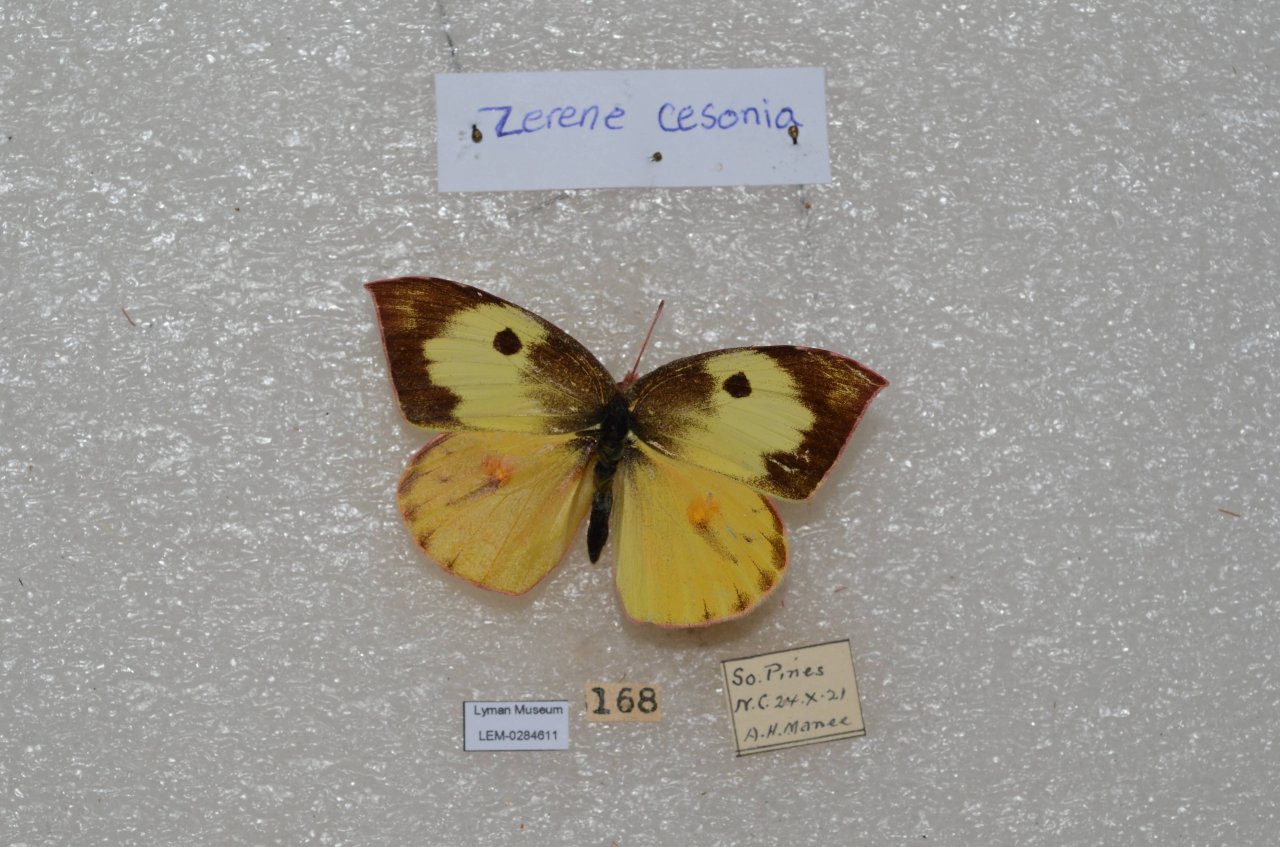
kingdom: Animalia
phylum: Arthropoda
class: Insecta
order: Lepidoptera
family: Pieridae
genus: Zerene
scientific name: Zerene cesonia
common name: Southern Dogface
